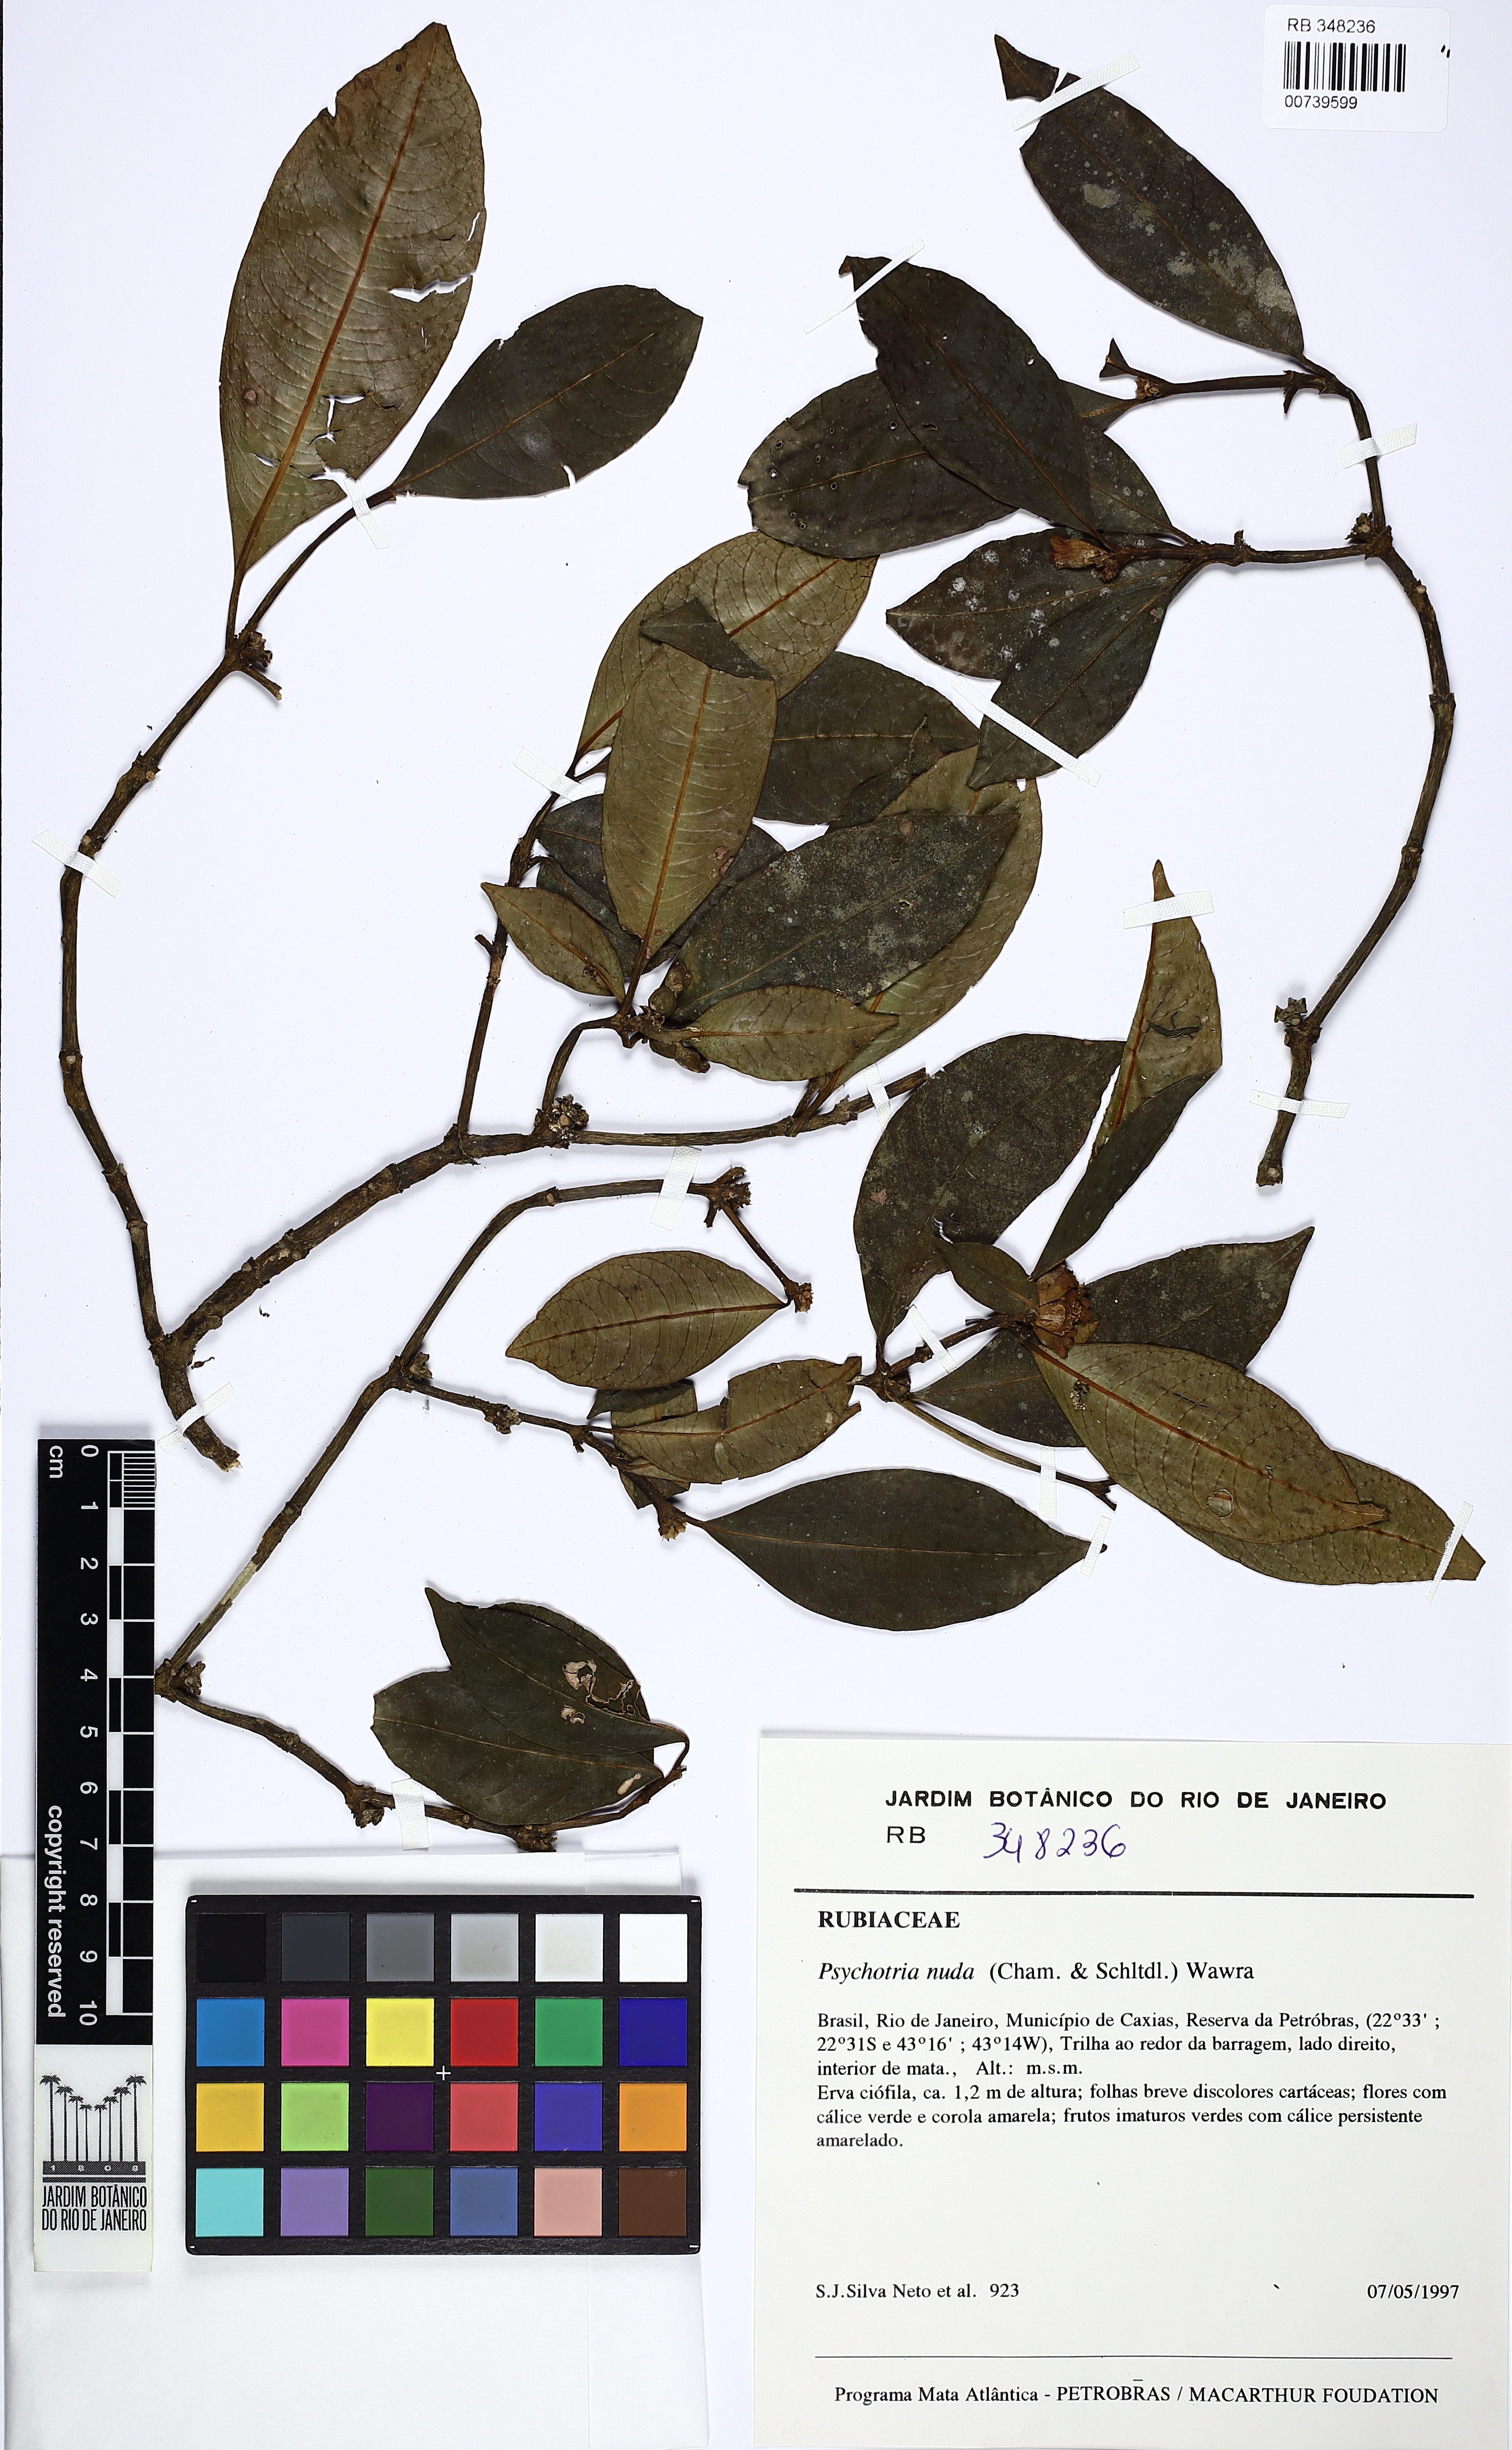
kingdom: Plantae
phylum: Tracheophyta
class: Magnoliopsida
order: Gentianales
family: Rubiaceae
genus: Psychotria
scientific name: Psychotria nuda
